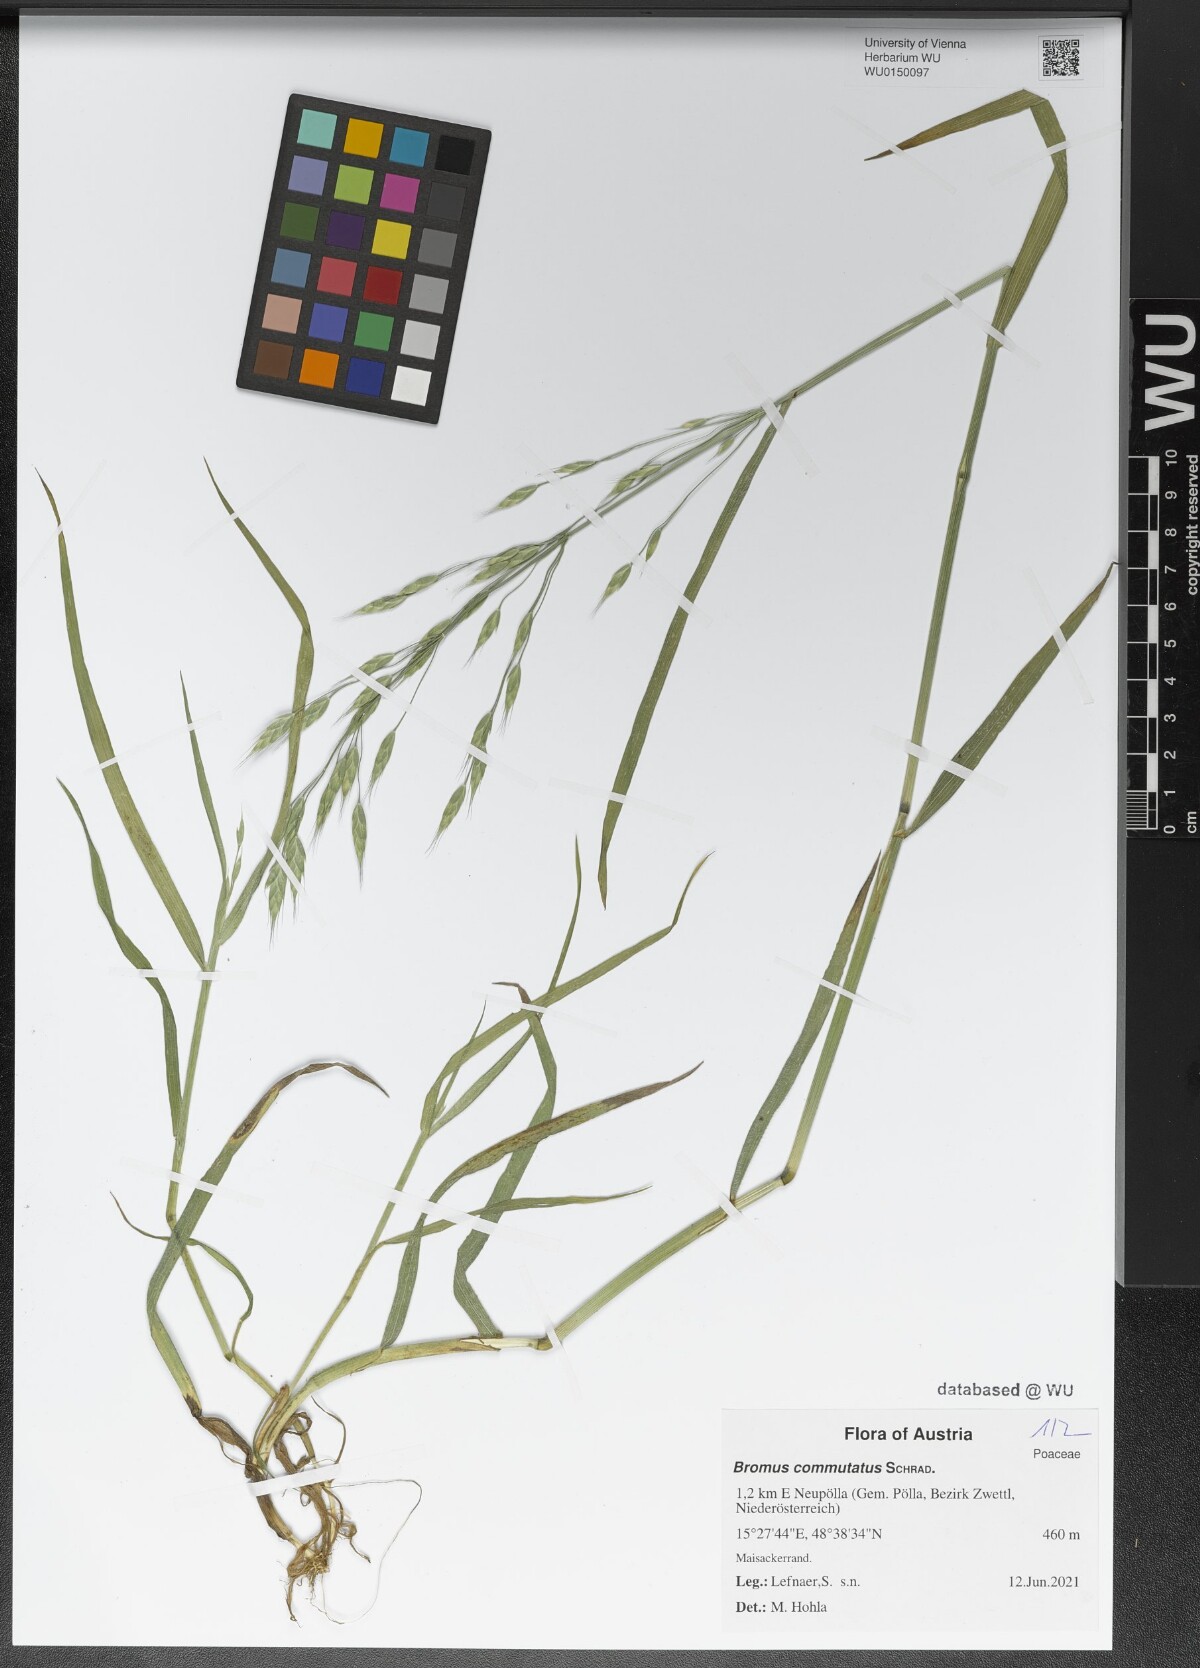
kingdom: Plantae
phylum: Tracheophyta
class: Liliopsida
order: Poales
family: Poaceae
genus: Bromus
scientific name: Bromus commutatus
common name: Meadow brome
